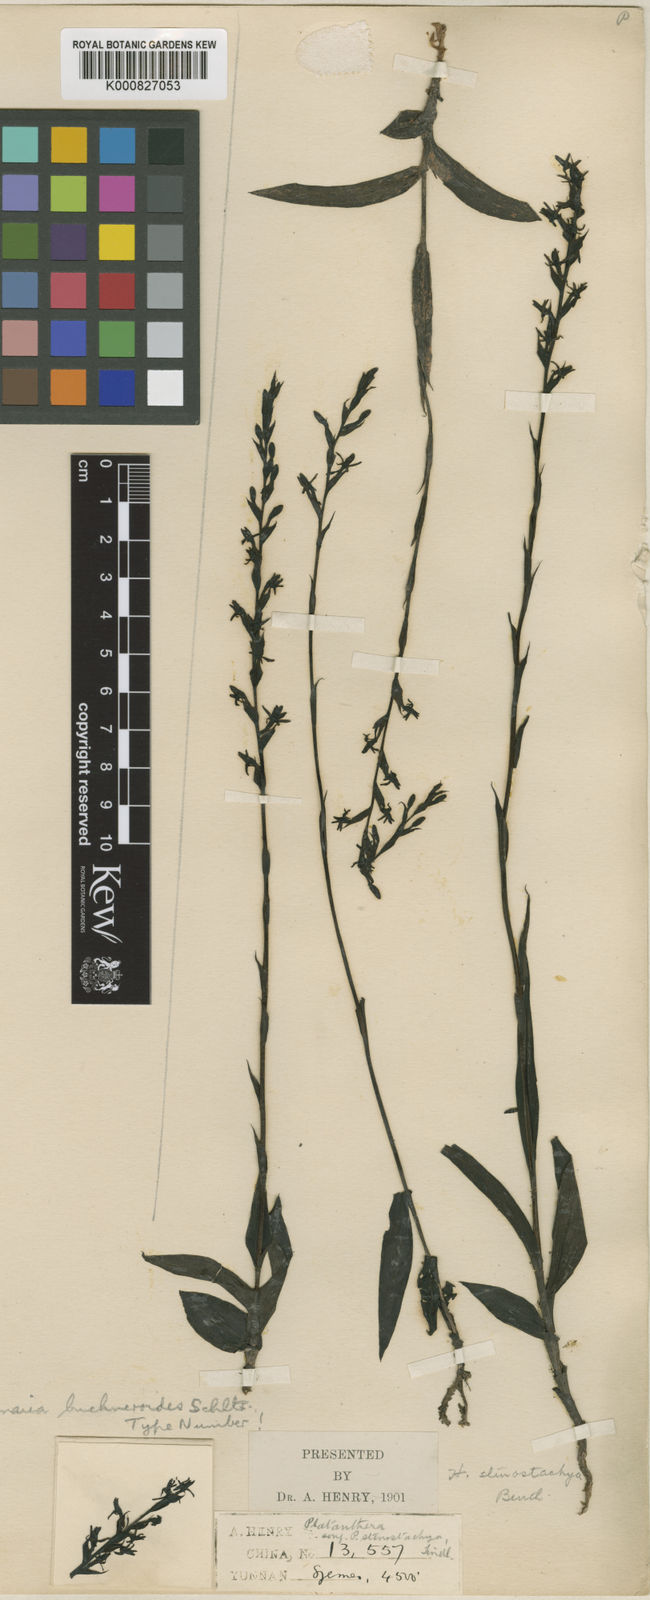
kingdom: Plantae
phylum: Tracheophyta
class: Liliopsida
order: Asparagales
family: Orchidaceae
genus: Peristylus
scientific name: Peristylus densus
